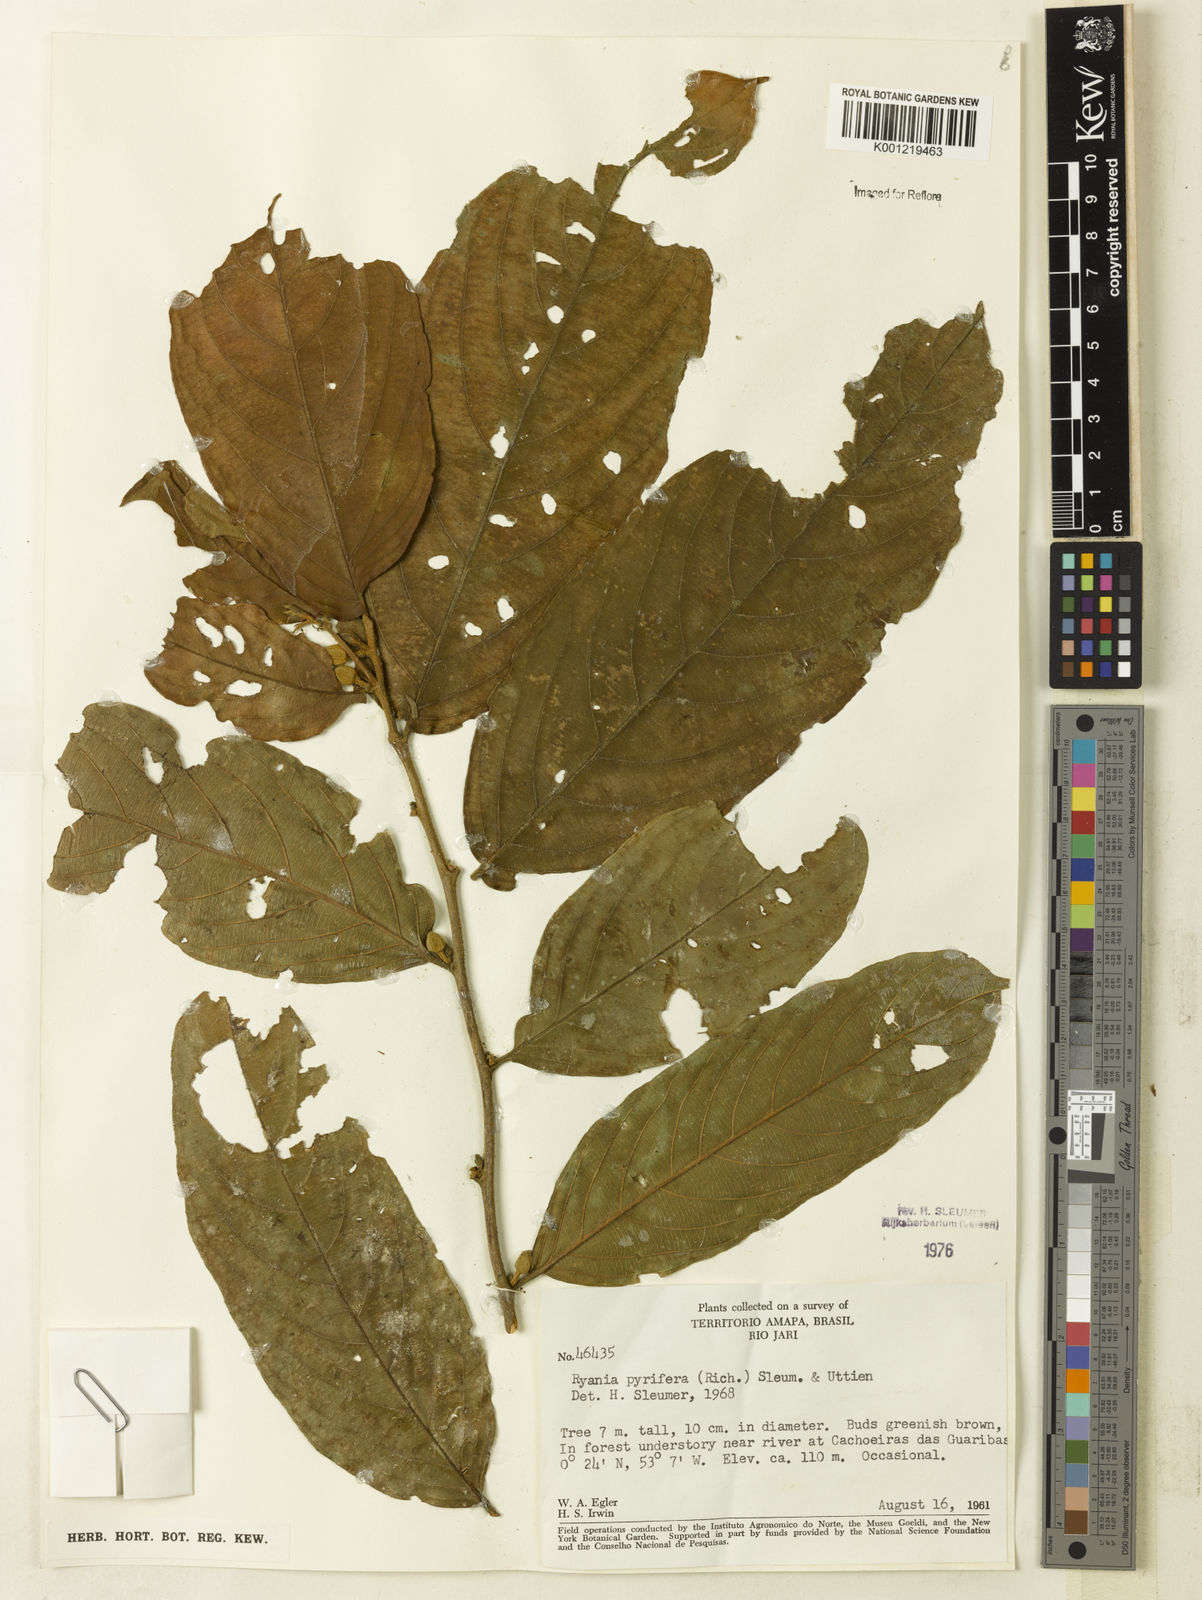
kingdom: Plantae
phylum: Tracheophyta
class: Magnoliopsida
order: Malpighiales
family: Salicaceae
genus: Ryania
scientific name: Ryania pyrifera
